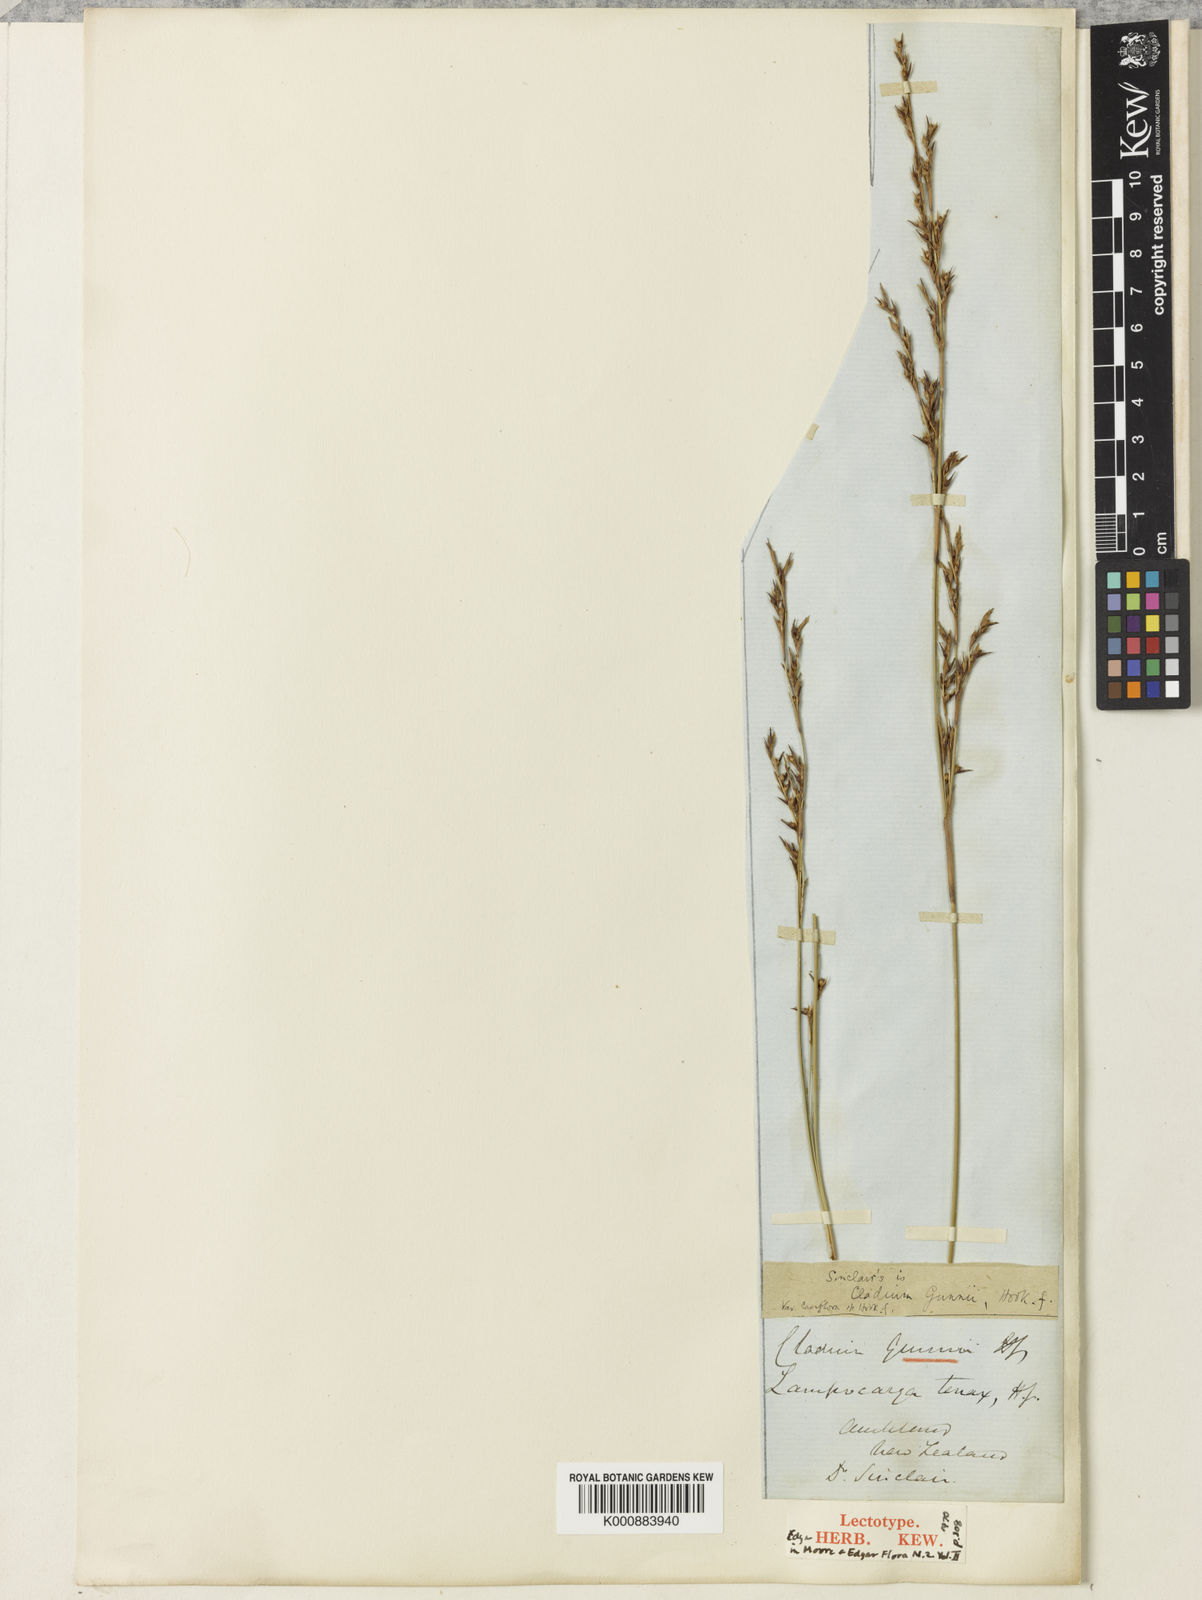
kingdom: Plantae
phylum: Tracheophyta
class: Liliopsida
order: Poales
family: Cyperaceae
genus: Machaerina
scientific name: Machaerina gunnii
